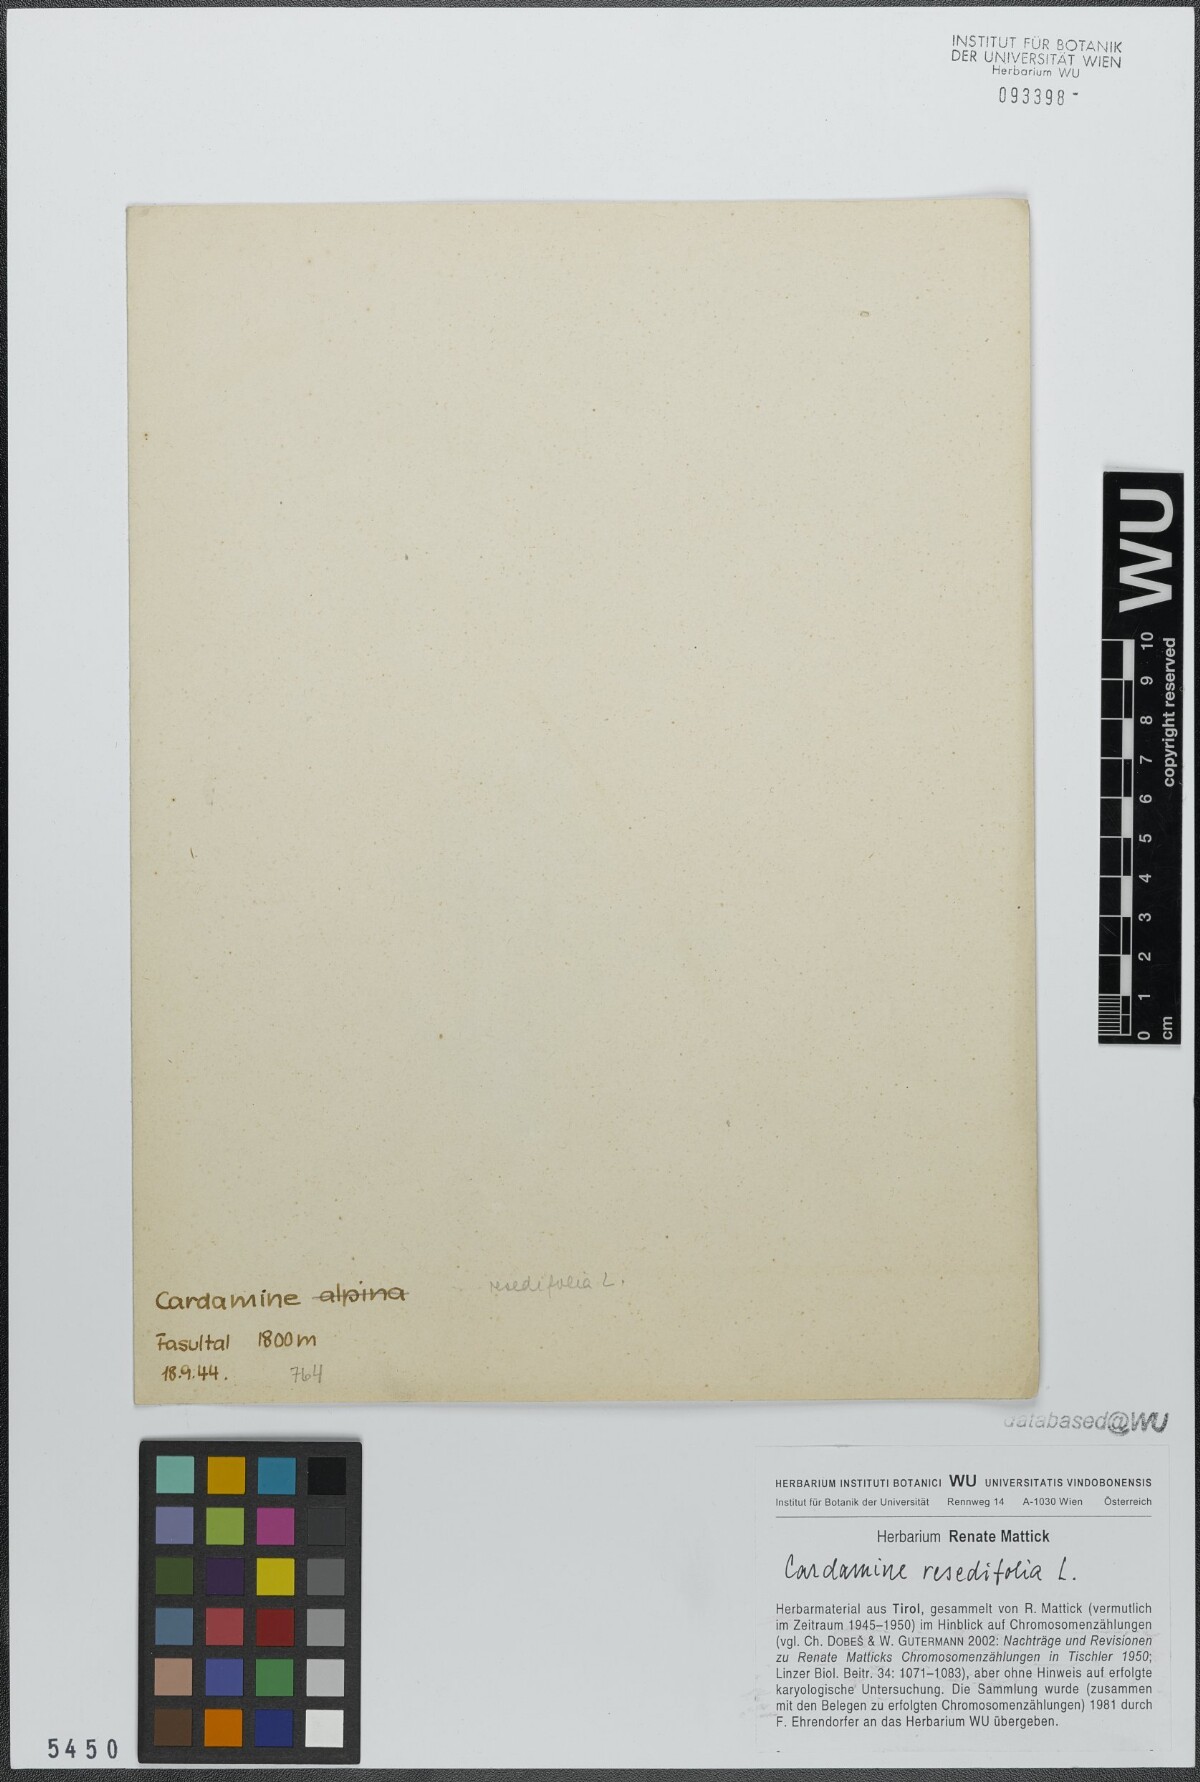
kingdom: Plantae
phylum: Tracheophyta
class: Magnoliopsida
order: Brassicales
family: Brassicaceae
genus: Cardamine
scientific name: Cardamine resedifolia
